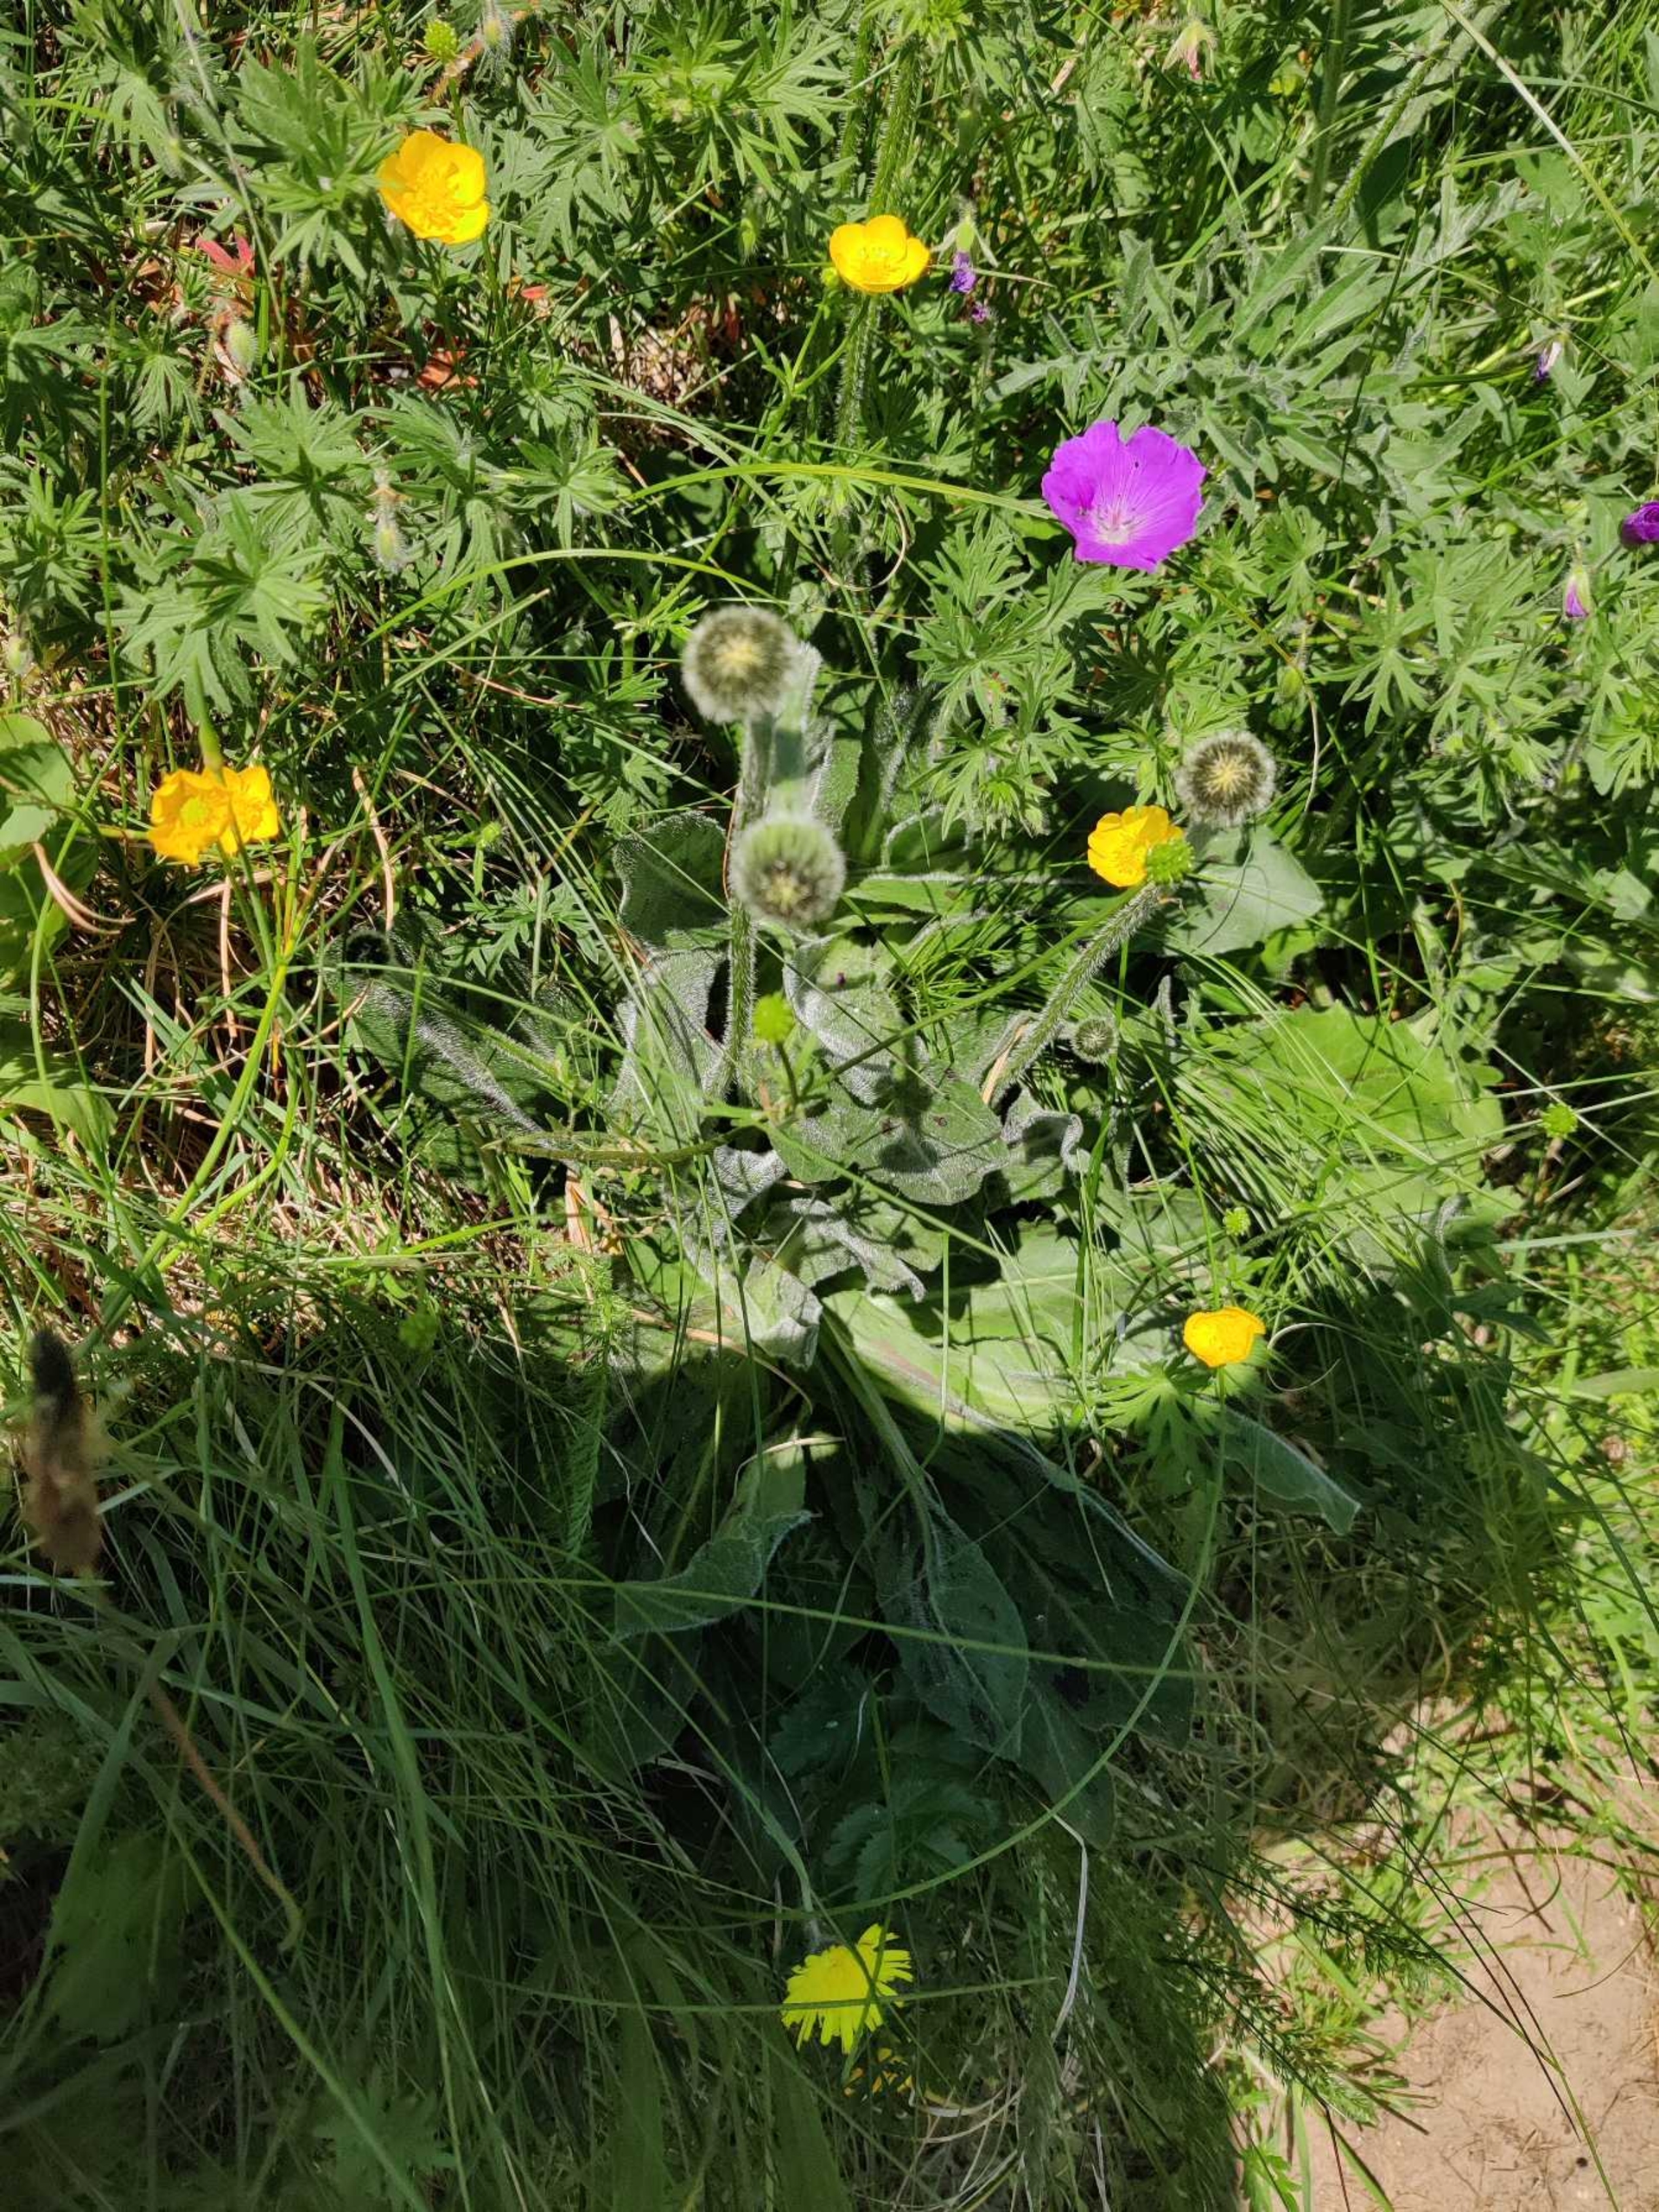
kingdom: Plantae
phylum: Tracheophyta
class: Magnoliopsida
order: Asterales
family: Asteraceae
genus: Trommsdorffia
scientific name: Trommsdorffia maculata
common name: Plettet kongepen
